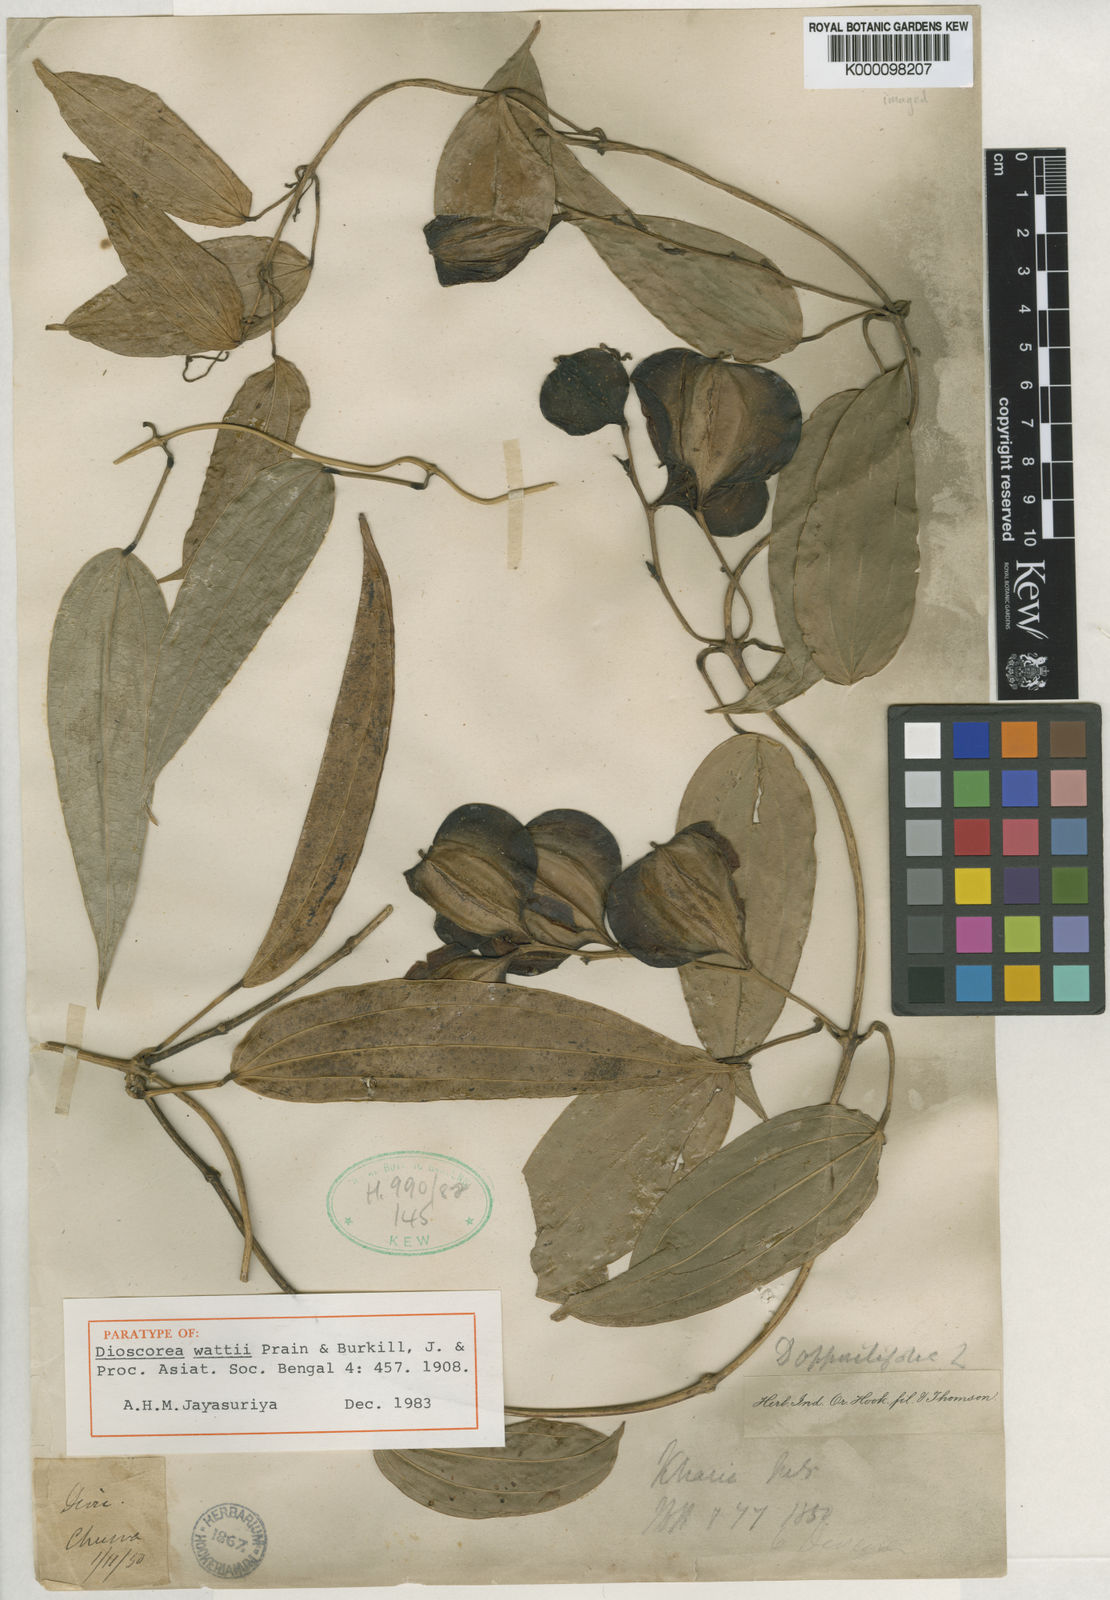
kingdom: Plantae
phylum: Tracheophyta
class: Liliopsida
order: Dioscoreales
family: Dioscoreaceae
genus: Dioscorea
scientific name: Dioscorea wattii
